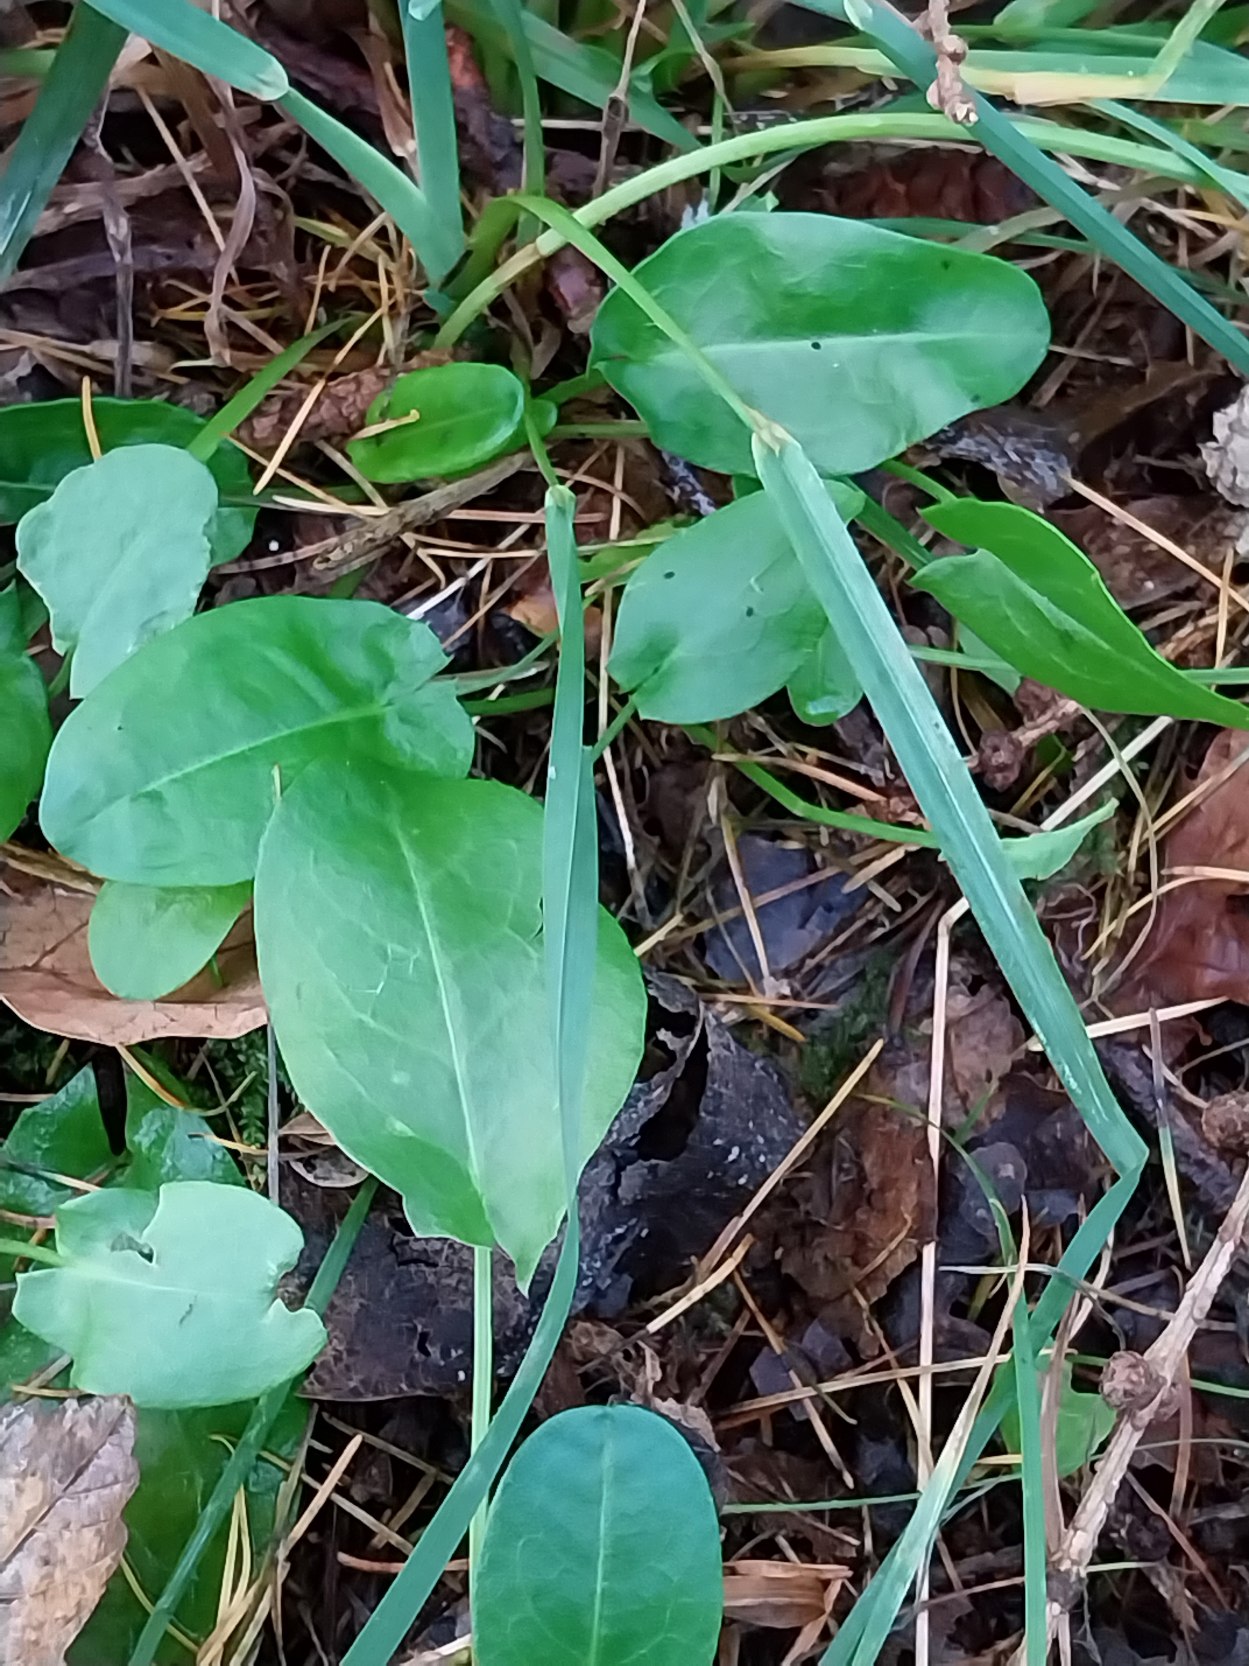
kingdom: Plantae
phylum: Tracheophyta
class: Magnoliopsida
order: Caryophyllales
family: Polygonaceae
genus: Rumex
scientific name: Rumex acetosa
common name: Almindelig syre
